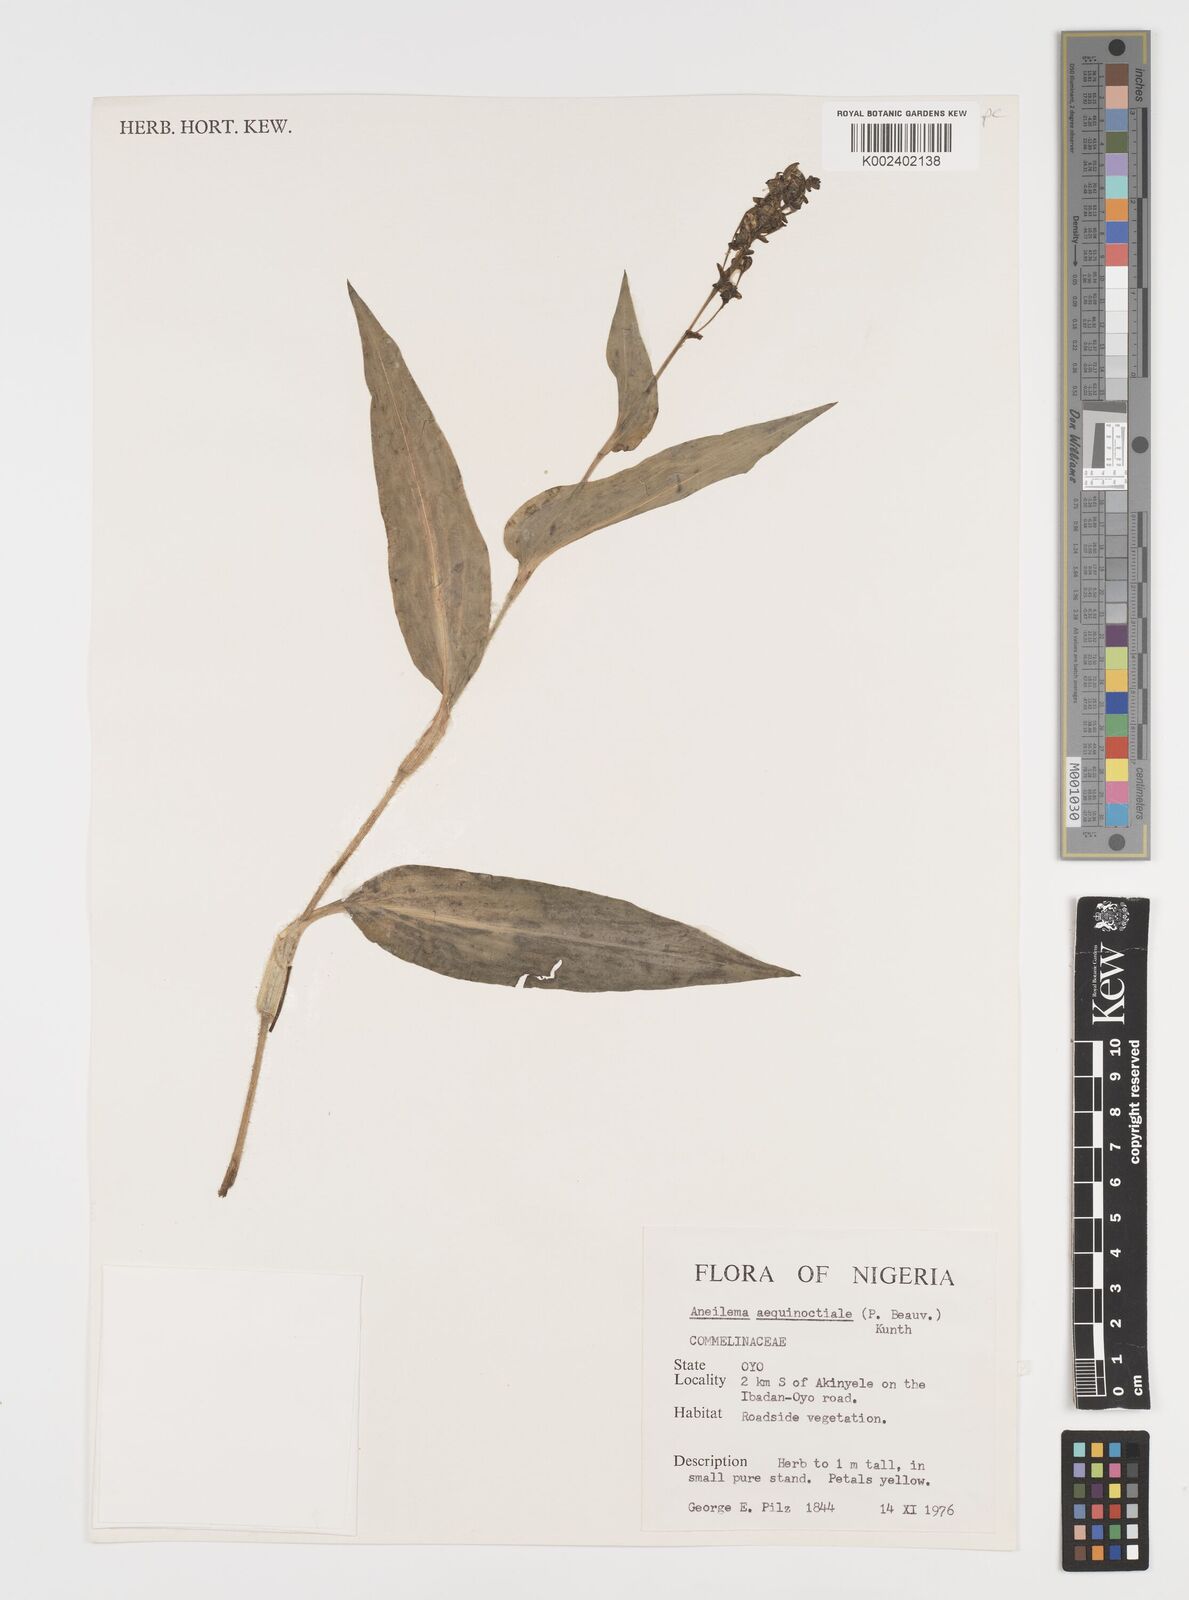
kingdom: Plantae
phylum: Tracheophyta
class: Liliopsida
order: Commelinales
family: Commelinaceae
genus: Aneilema
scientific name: Aneilema aequinoctiale
